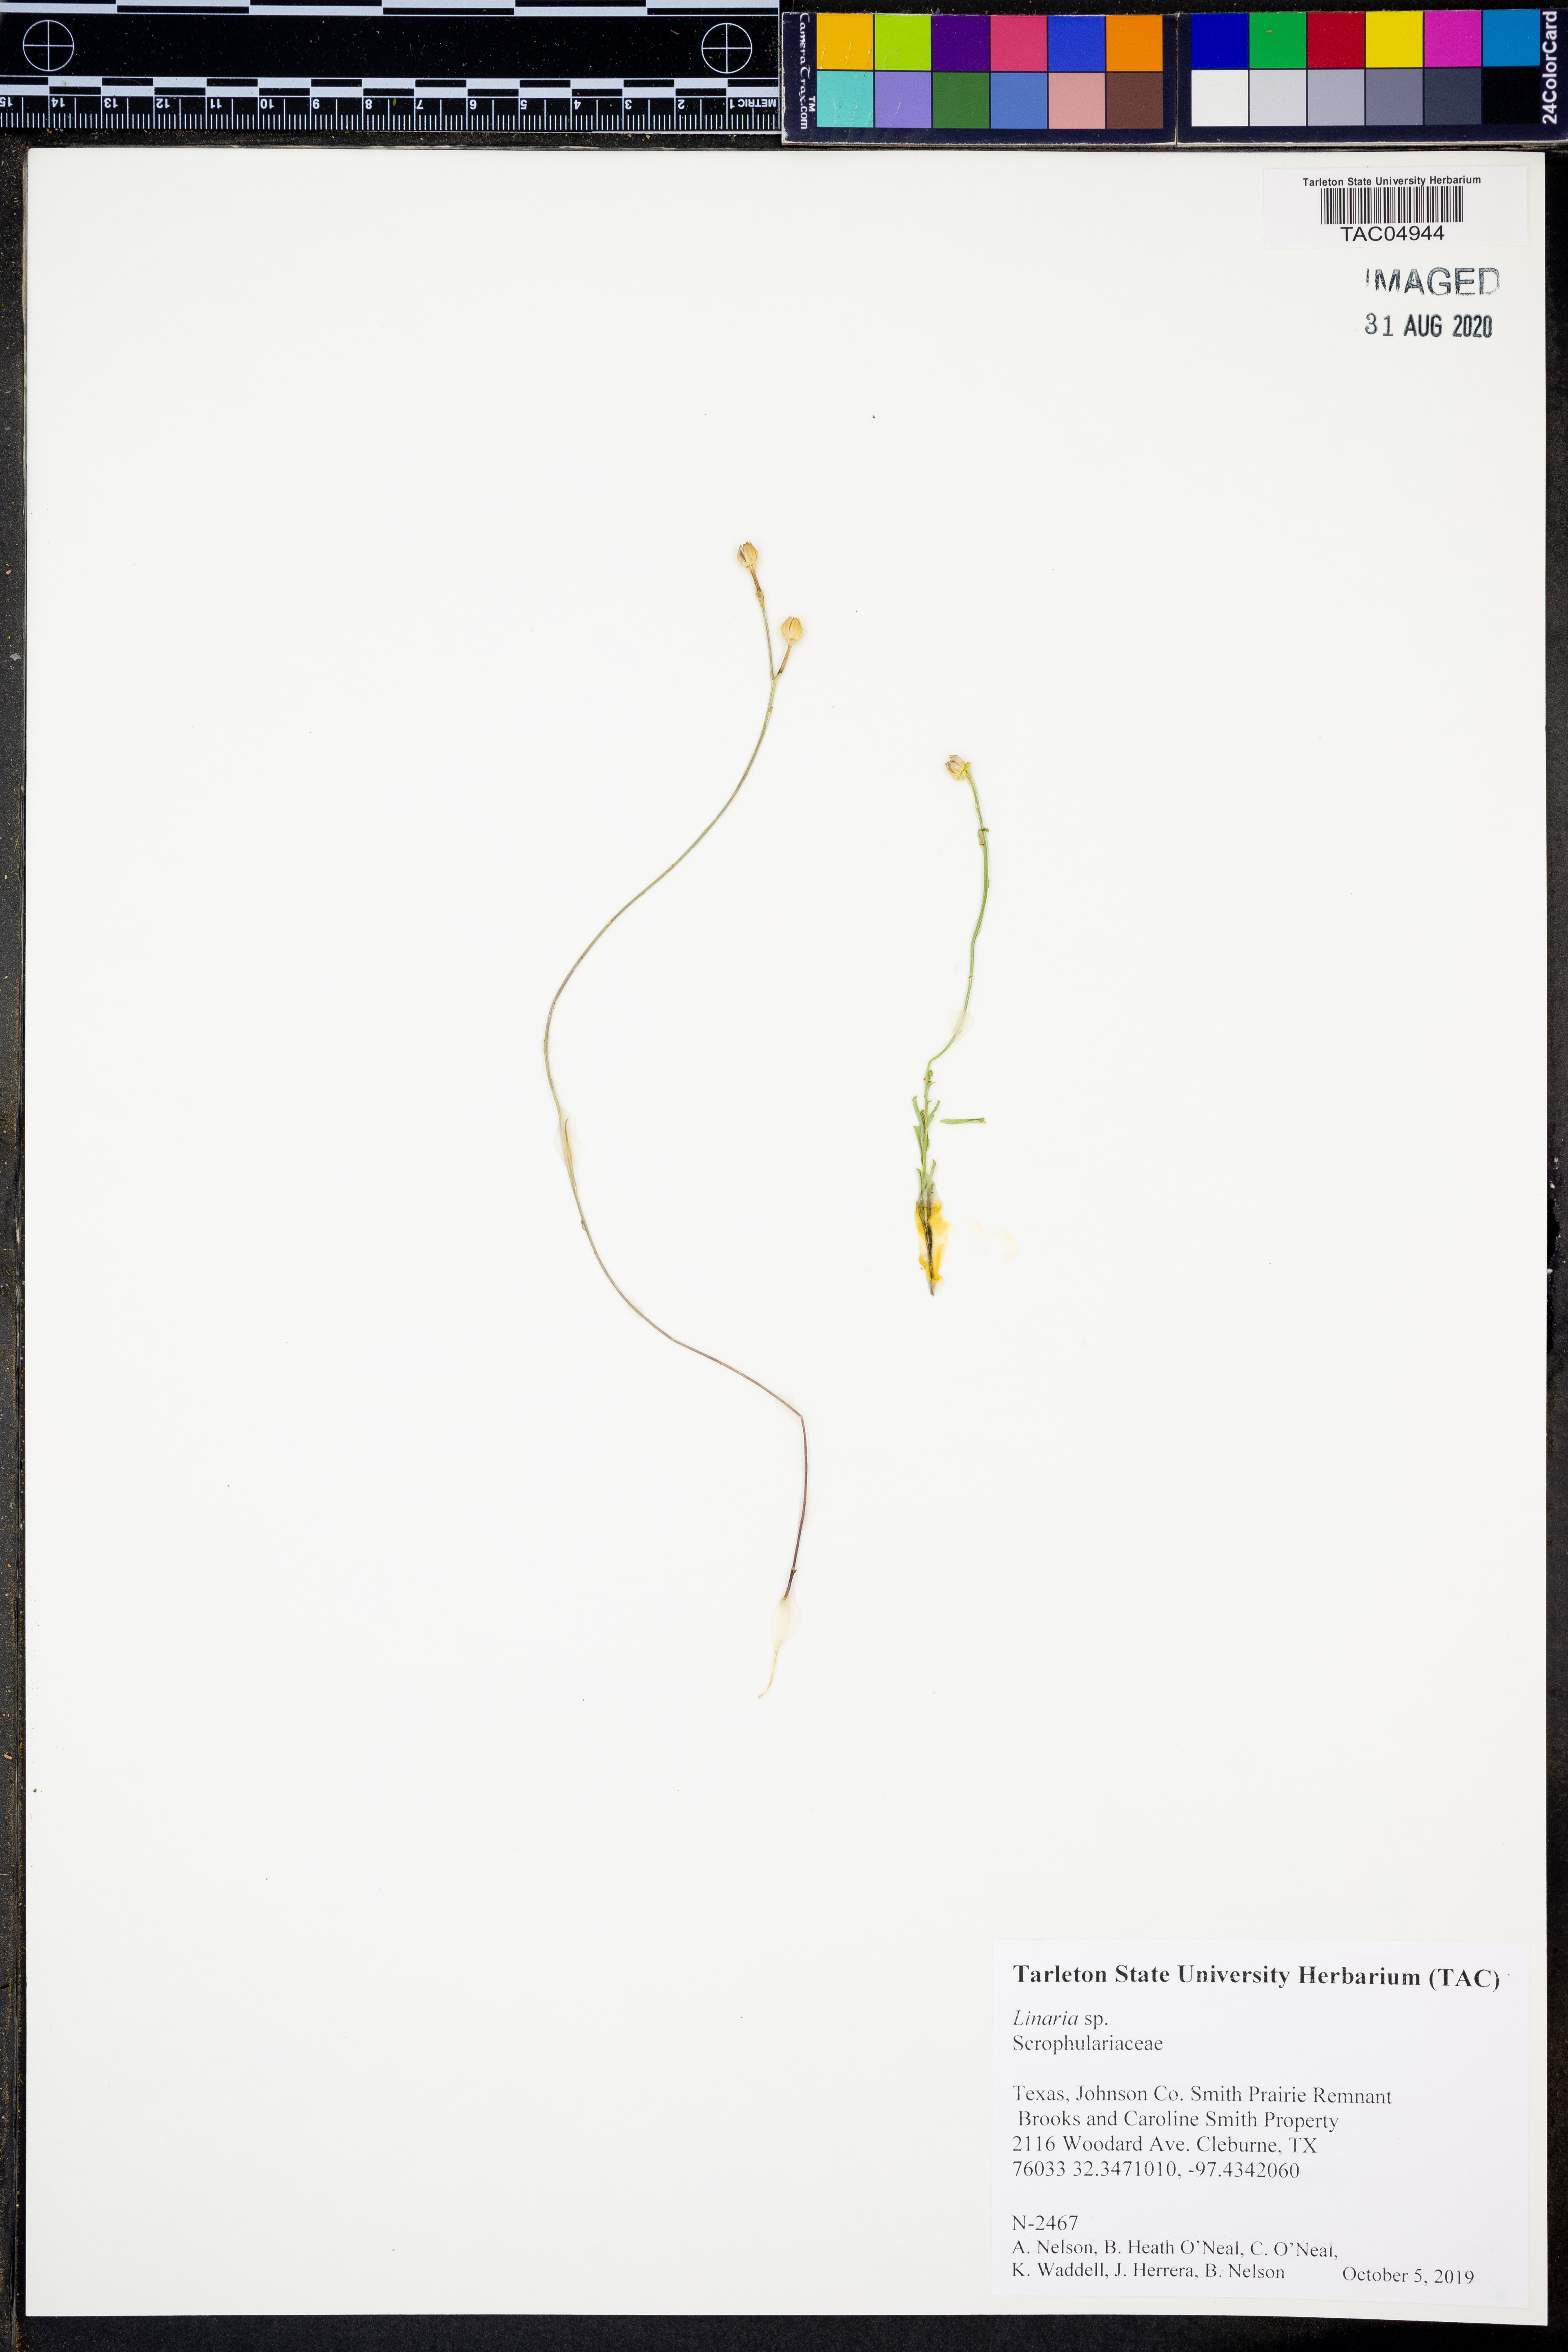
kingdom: Plantae
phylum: Tracheophyta
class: Magnoliopsida
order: Lamiales
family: Plantaginaceae
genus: Linaria
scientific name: Linaria
